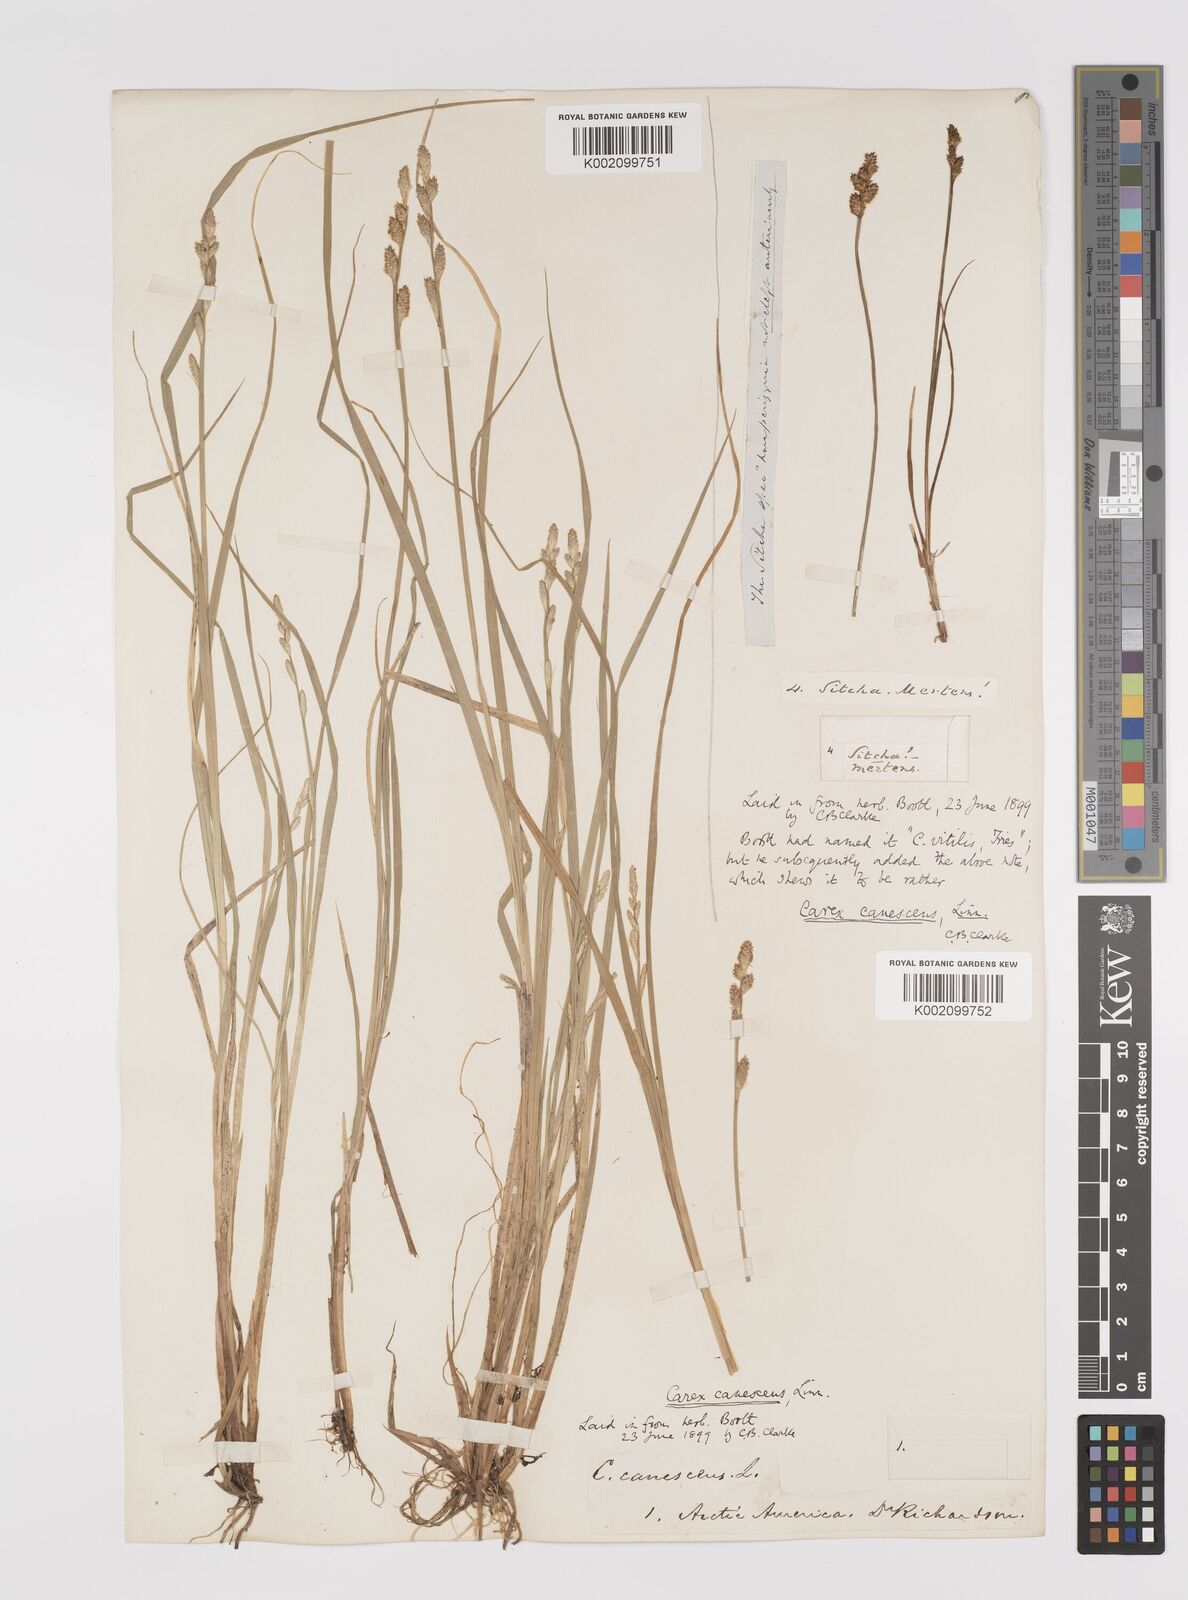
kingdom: Plantae
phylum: Tracheophyta
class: Liliopsida
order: Poales
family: Cyperaceae
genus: Carex
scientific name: Carex curta
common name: White sedge
